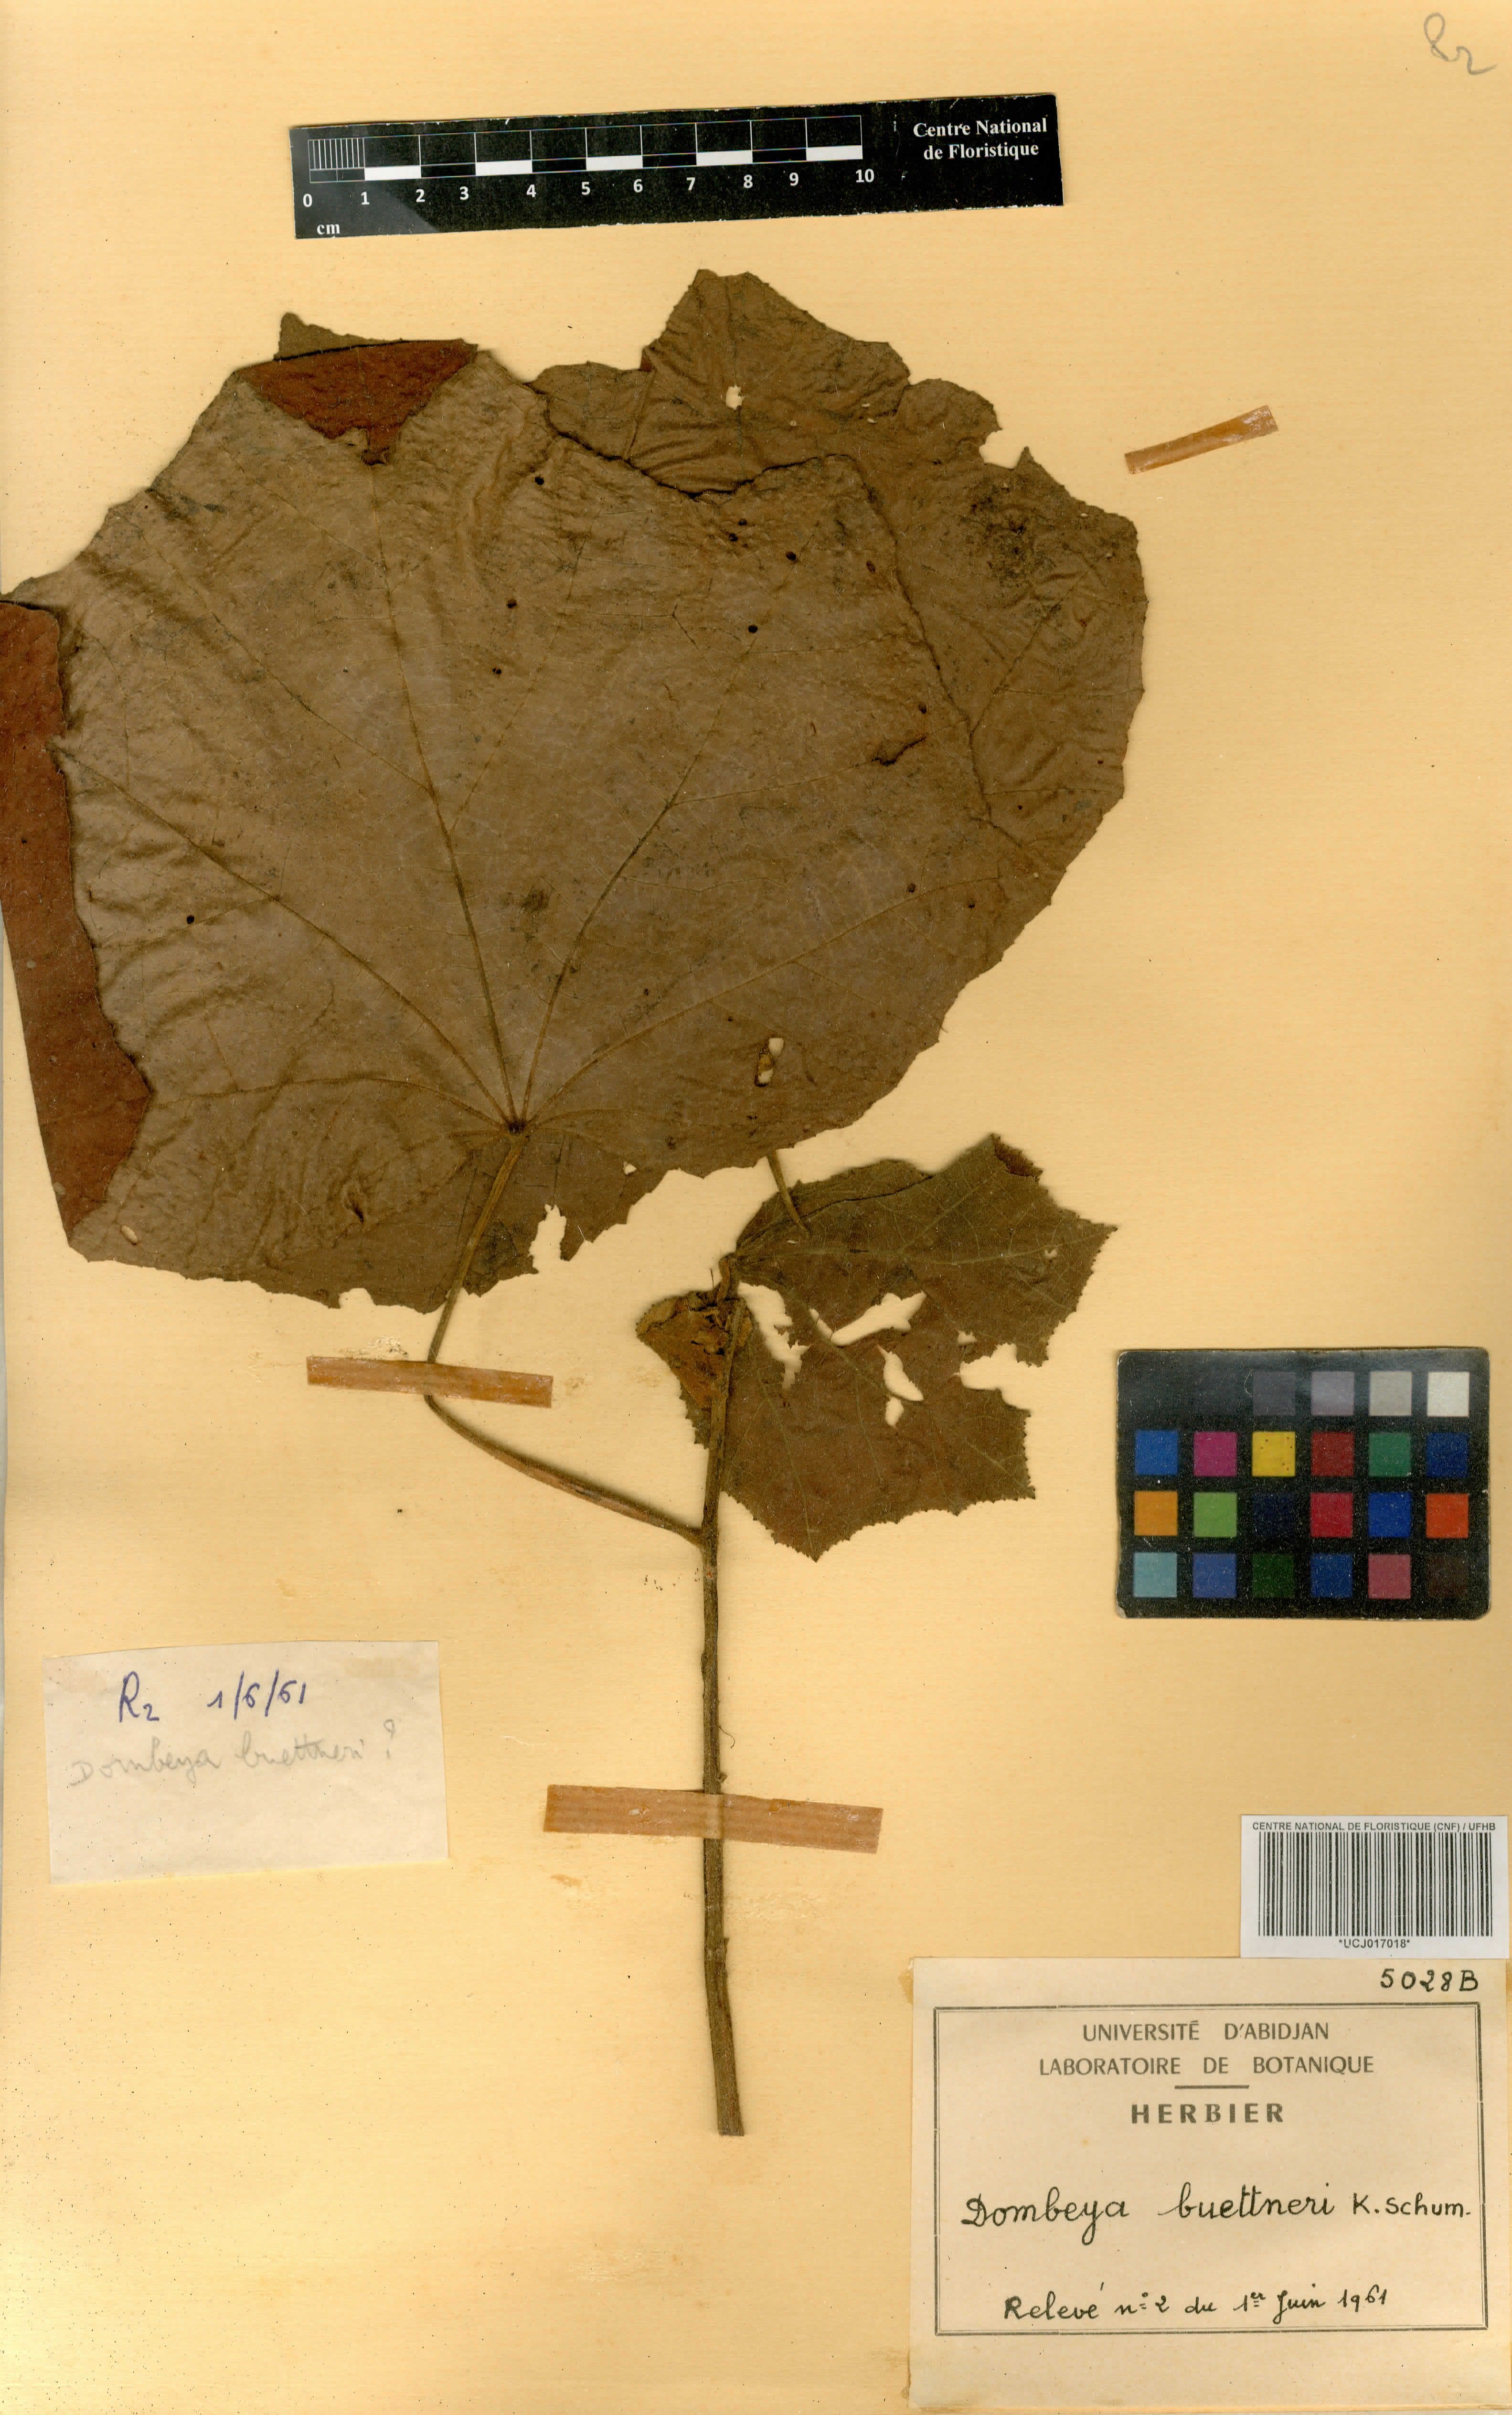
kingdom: Plantae
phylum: Tracheophyta
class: Magnoliopsida
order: Malvales
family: Malvaceae
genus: Dombeya
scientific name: Dombeya buettneri
